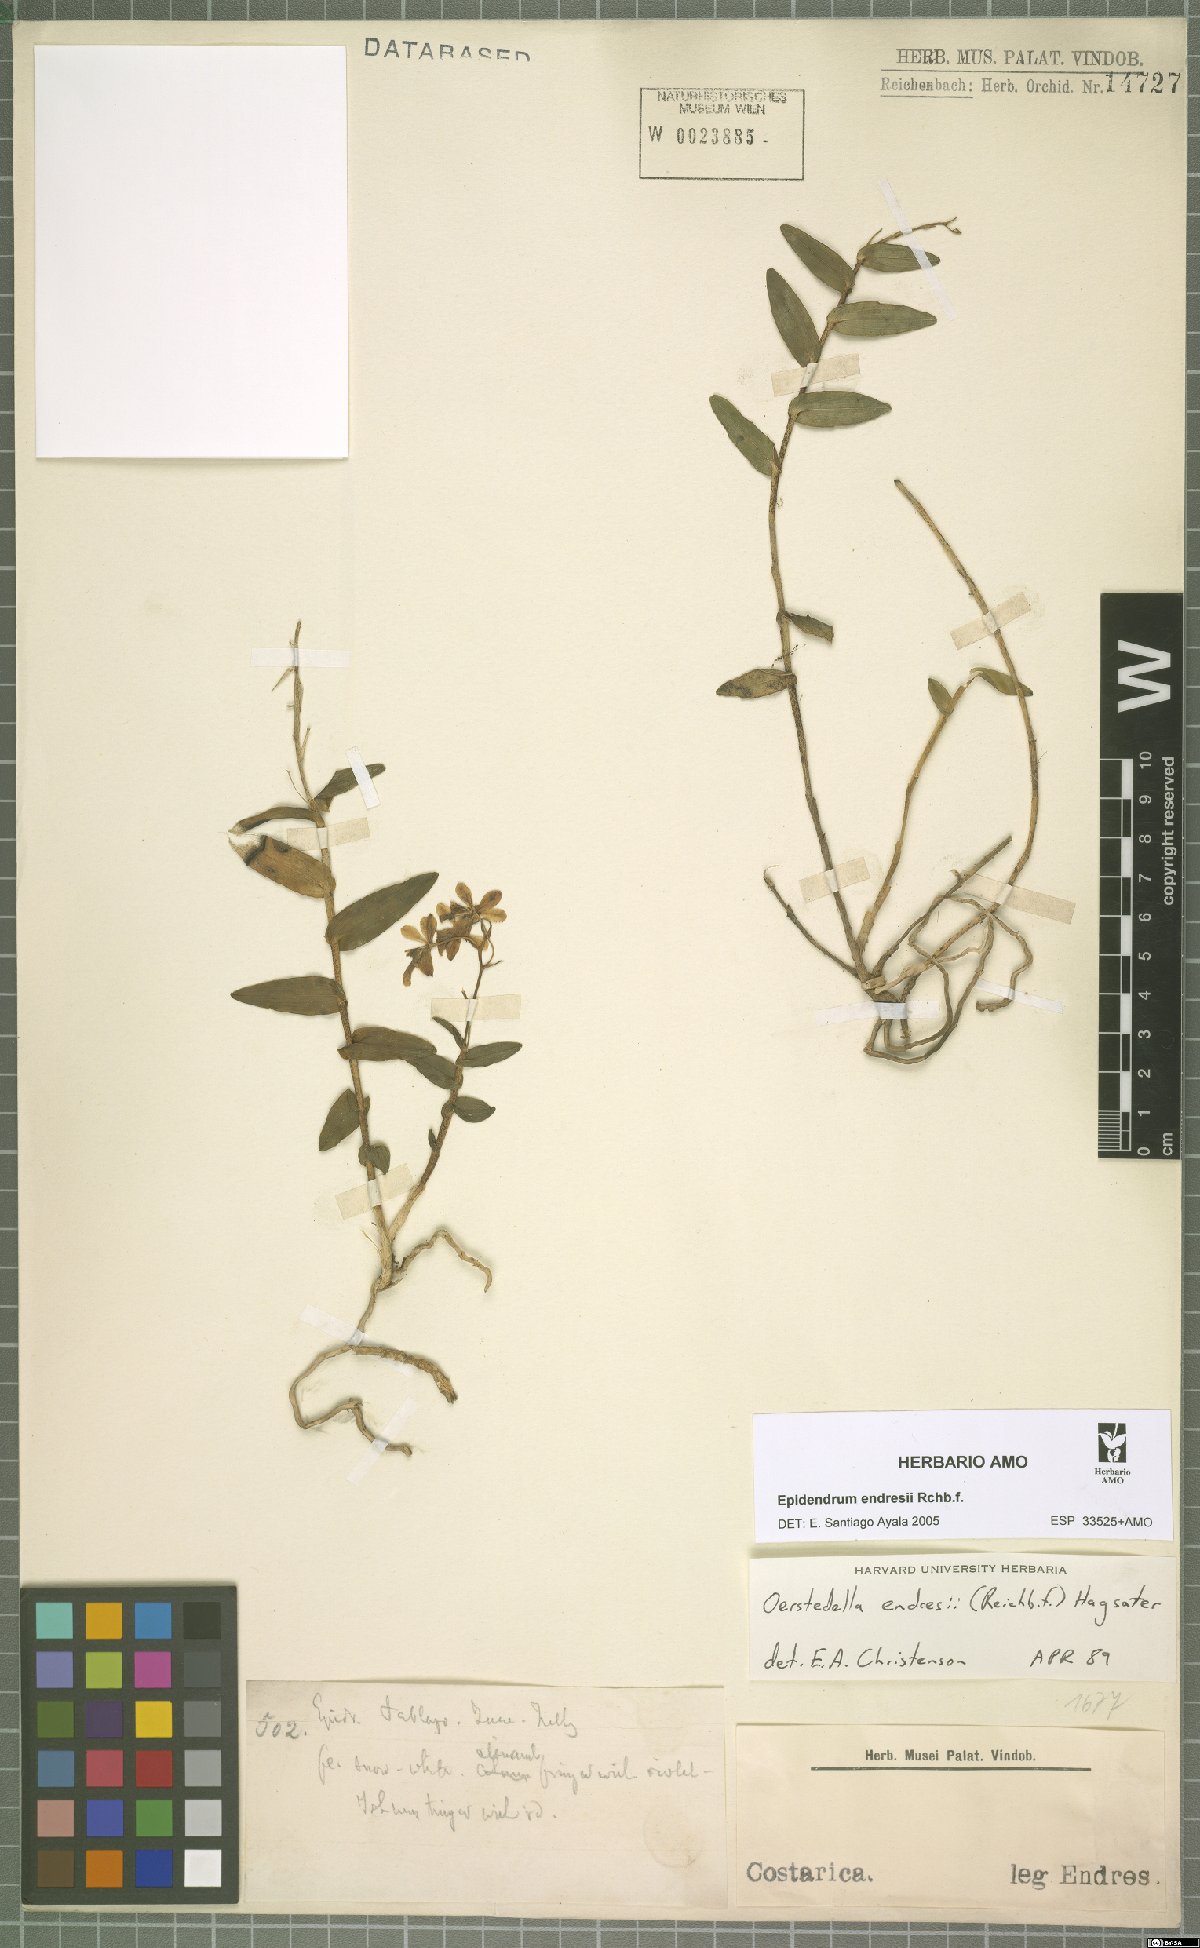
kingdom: Plantae
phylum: Tracheophyta
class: Liliopsida
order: Asparagales
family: Orchidaceae
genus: Epidendrum
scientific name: Epidendrum endresii
